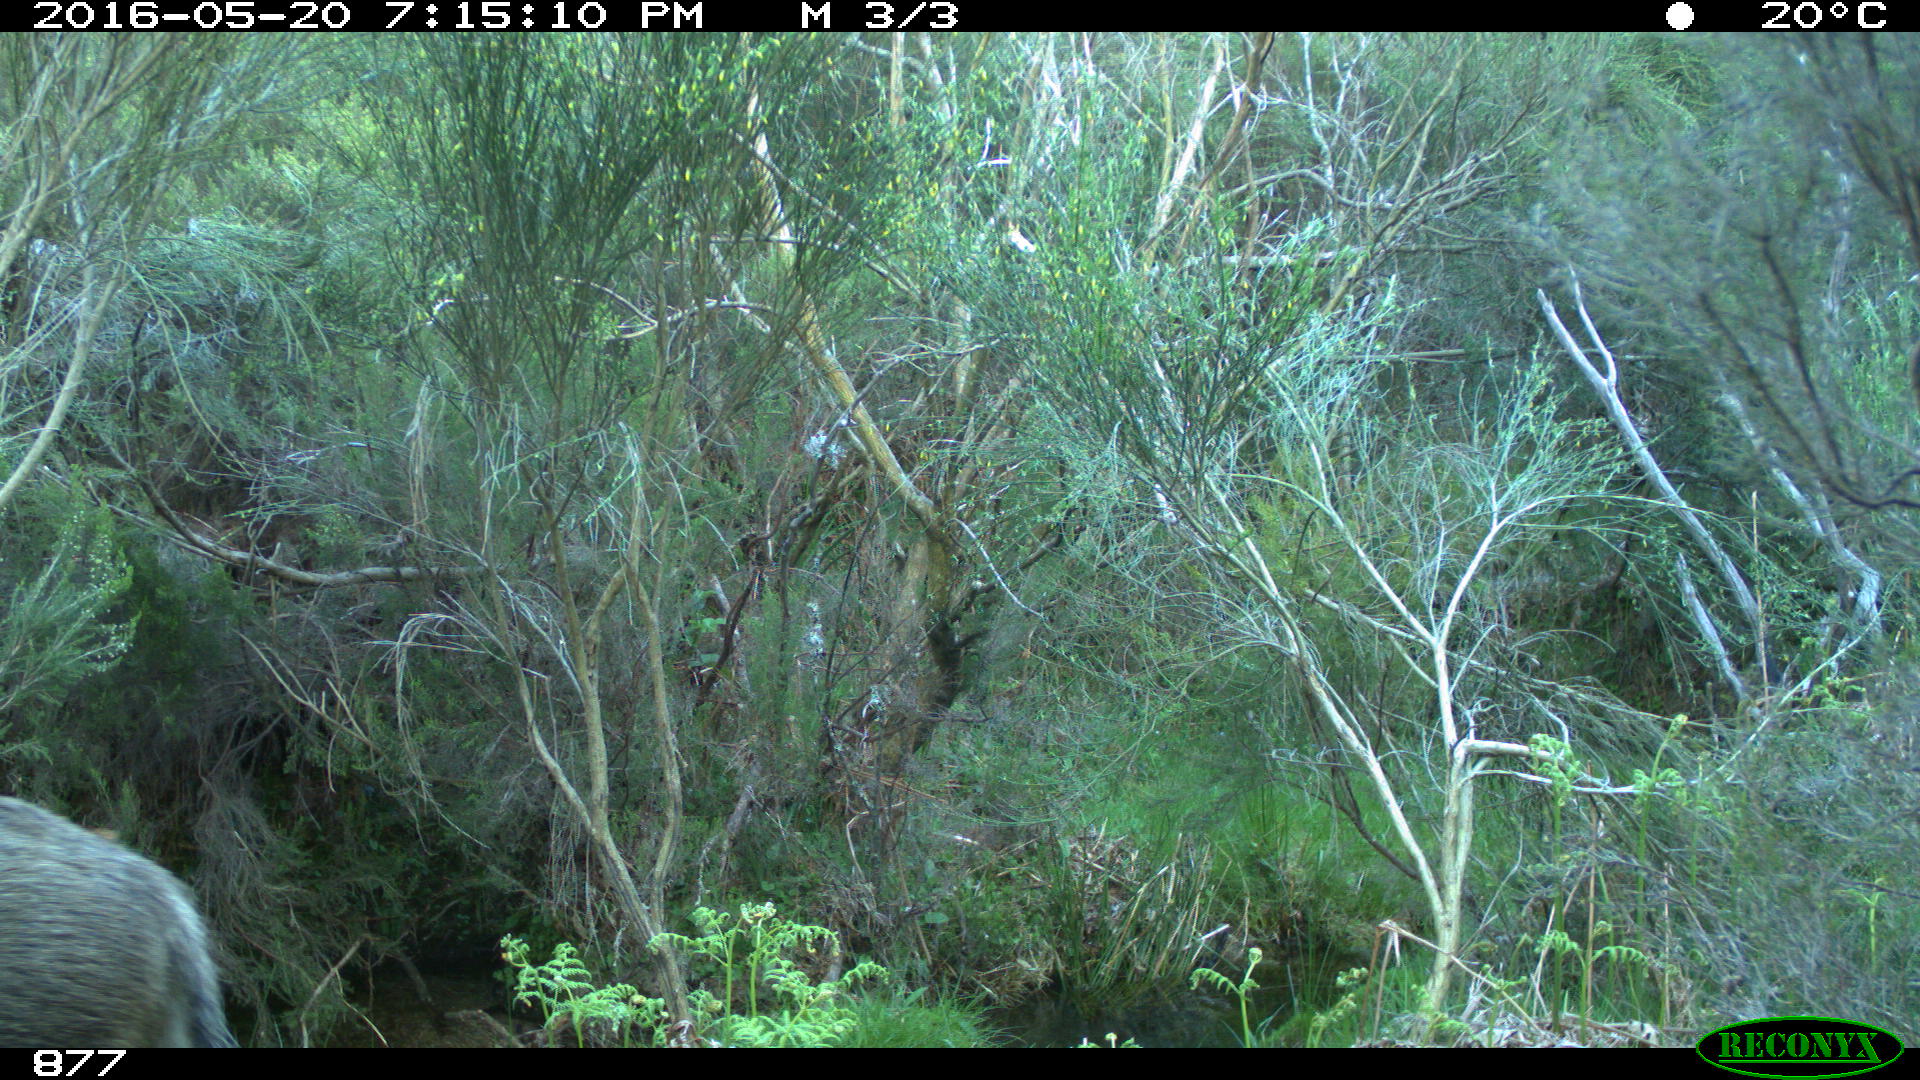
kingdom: Animalia
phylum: Chordata
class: Mammalia
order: Artiodactyla
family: Suidae
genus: Sus
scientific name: Sus scrofa
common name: Wild boar
